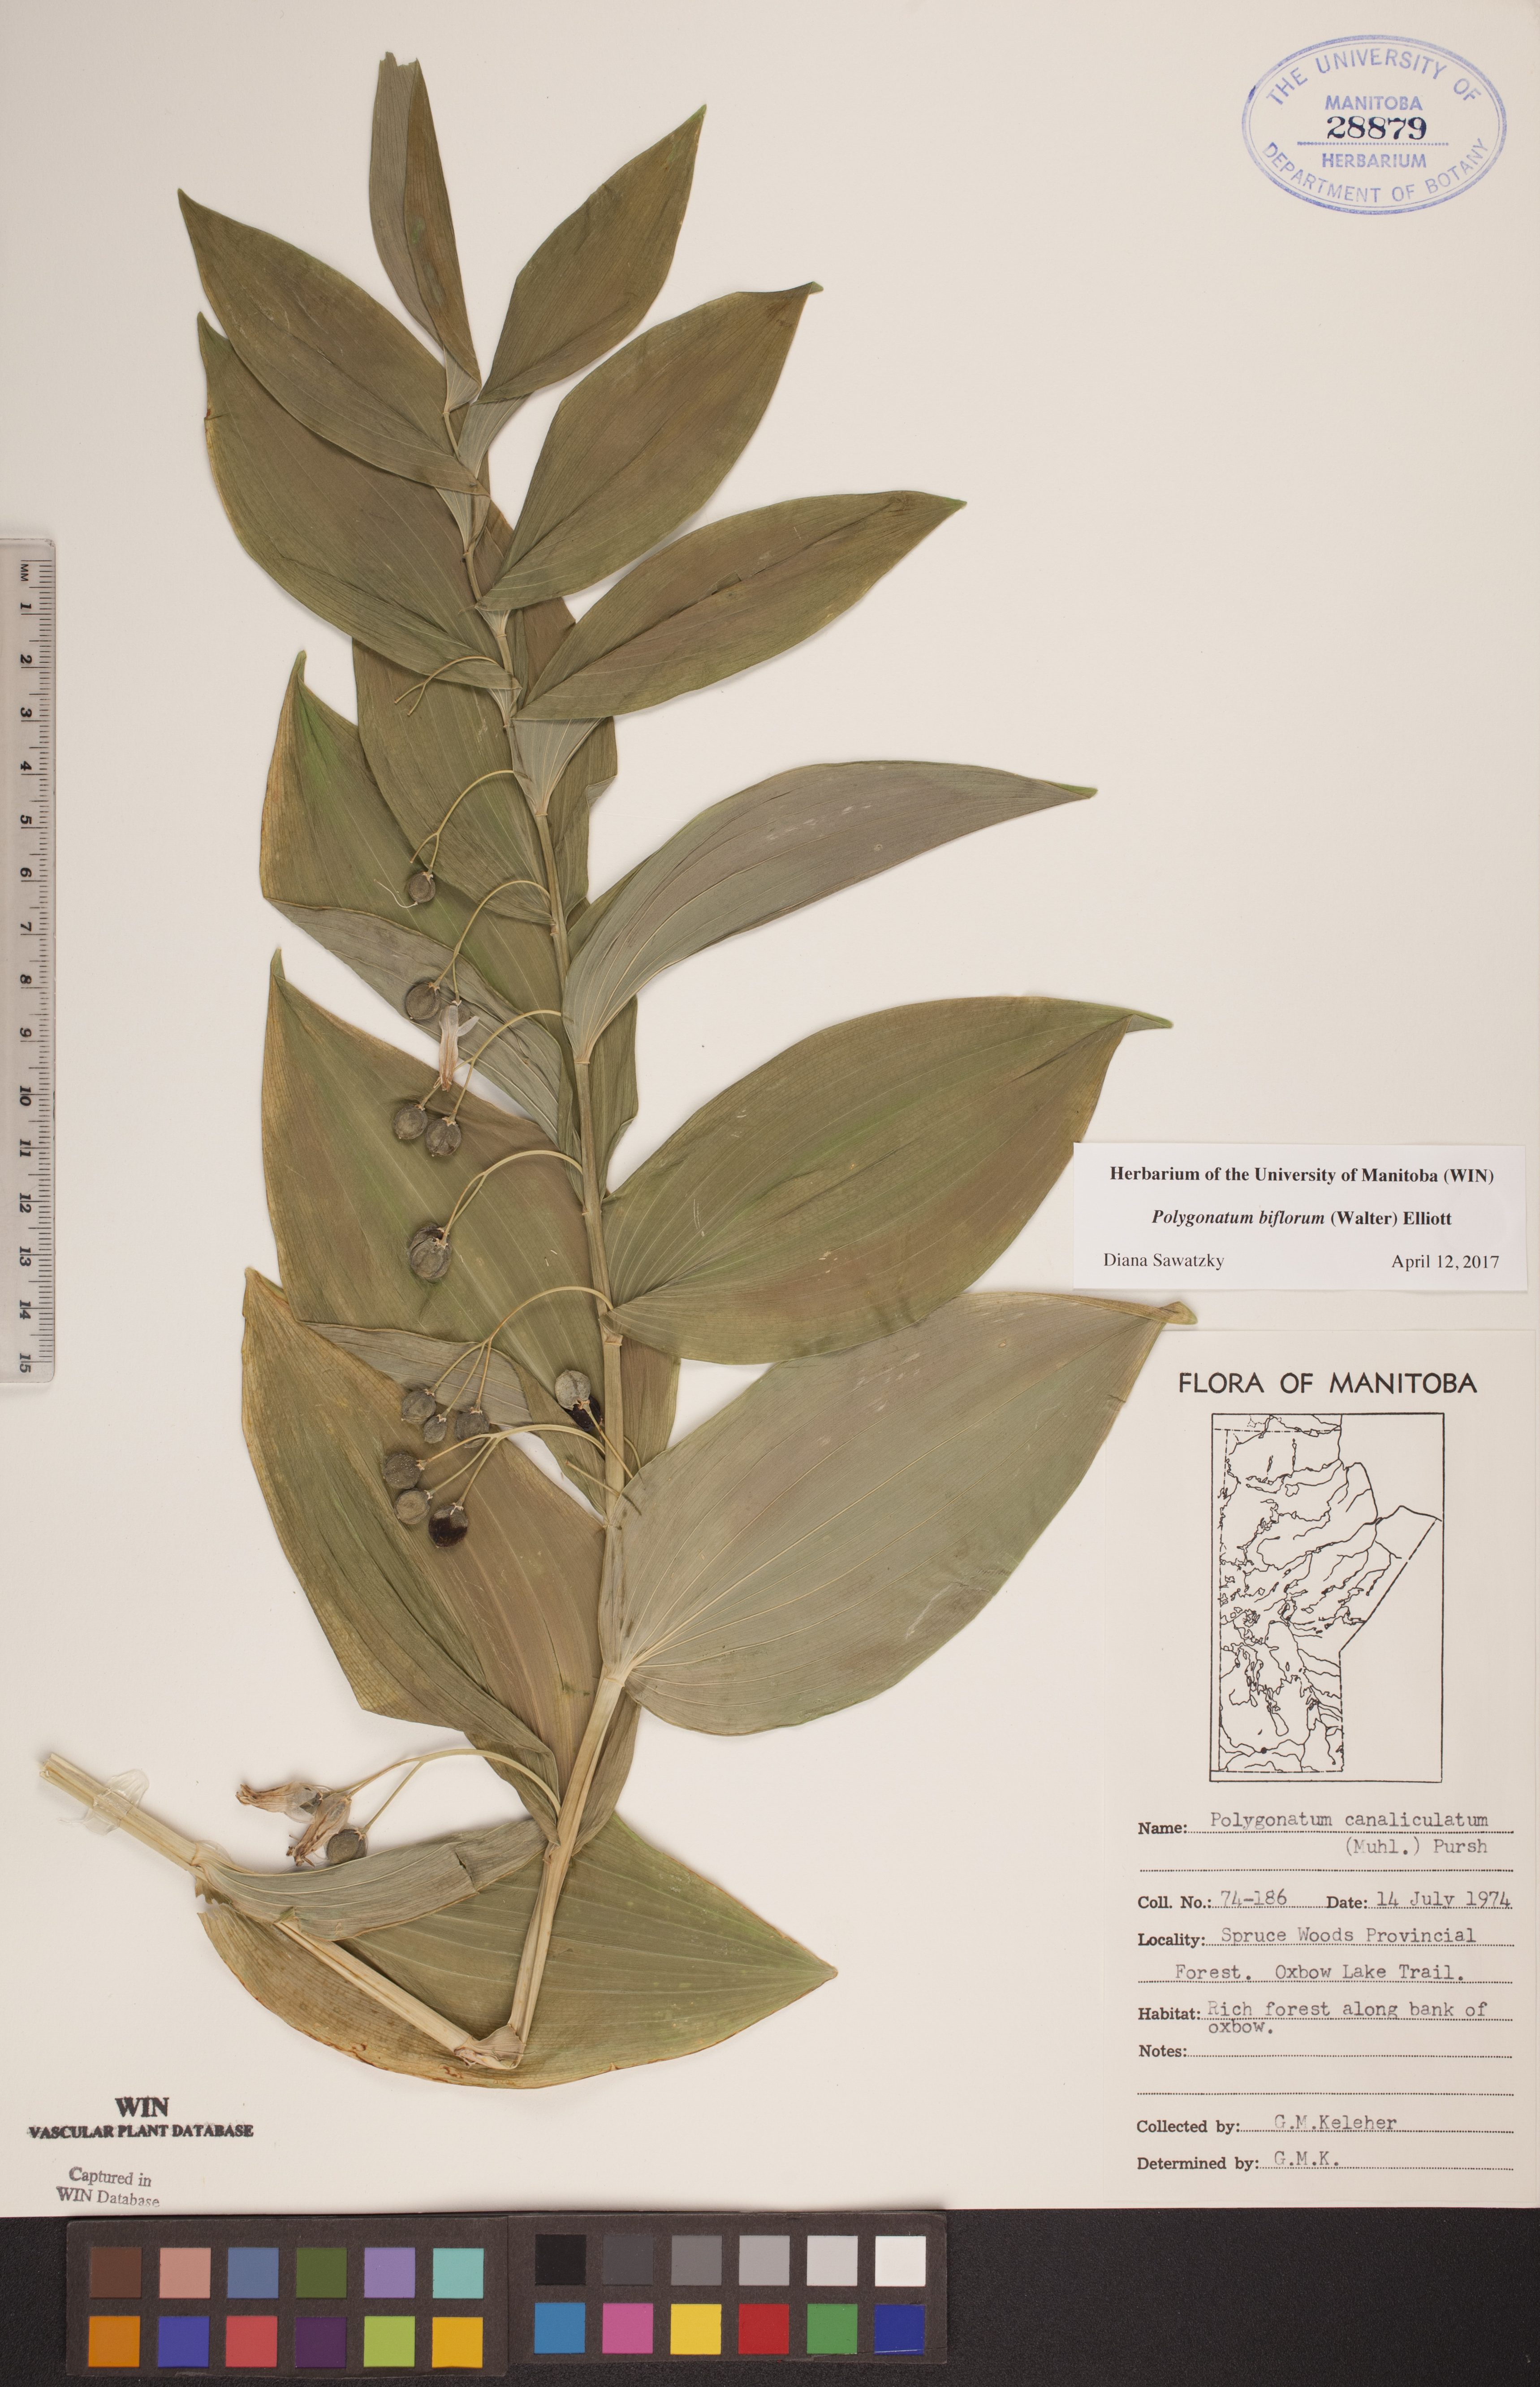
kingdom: Plantae
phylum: Tracheophyta
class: Liliopsida
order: Asparagales
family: Asparagaceae
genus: Polygonatum
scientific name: Polygonatum biflorum
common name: American solomon's-seal
